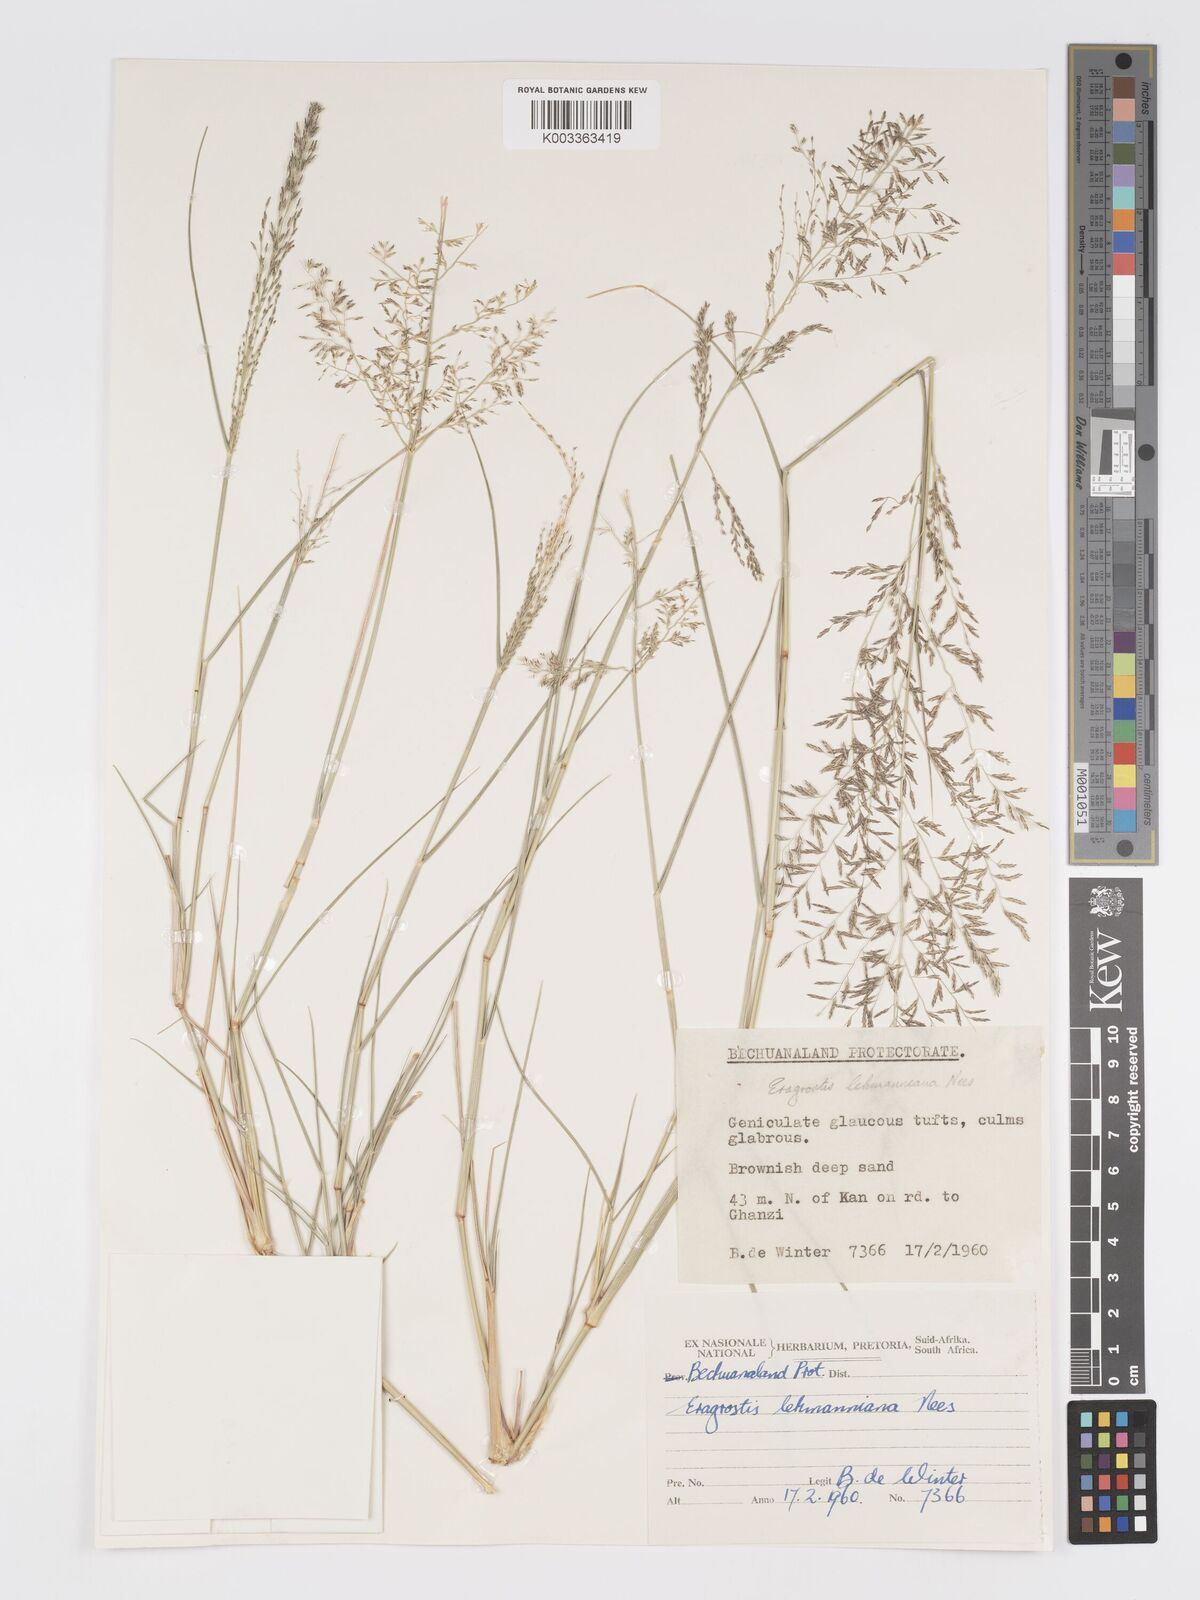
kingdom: Plantae
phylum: Tracheophyta
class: Liliopsida
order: Poales
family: Poaceae
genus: Eragrostis
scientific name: Eragrostis lehmanniana
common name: Lehmann lovegrass
